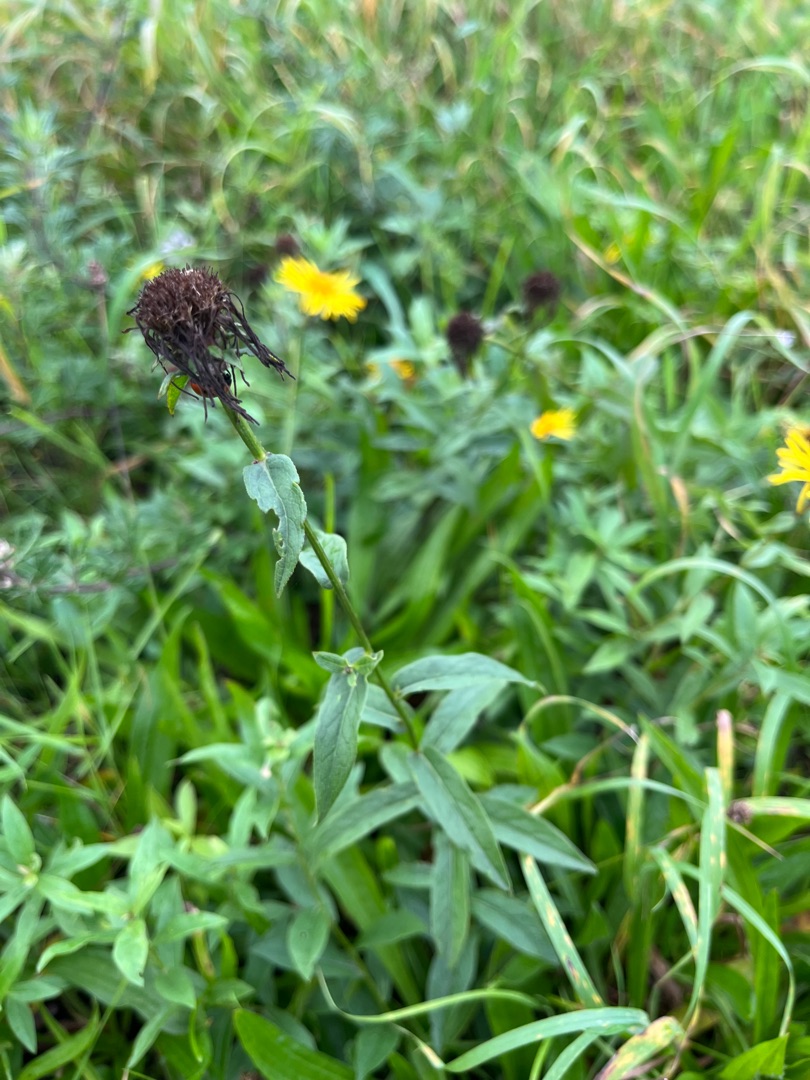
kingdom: Plantae
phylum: Tracheophyta
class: Magnoliopsida
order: Asterales
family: Asteraceae
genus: Pentanema
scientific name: Pentanema salicinum
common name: Pile-alant
